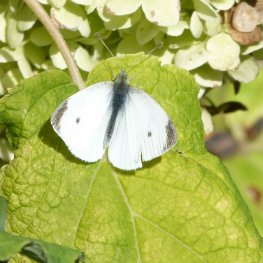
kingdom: Animalia
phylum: Arthropoda
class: Insecta
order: Lepidoptera
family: Pieridae
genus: Pieris
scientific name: Pieris rapae
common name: Cabbage White
